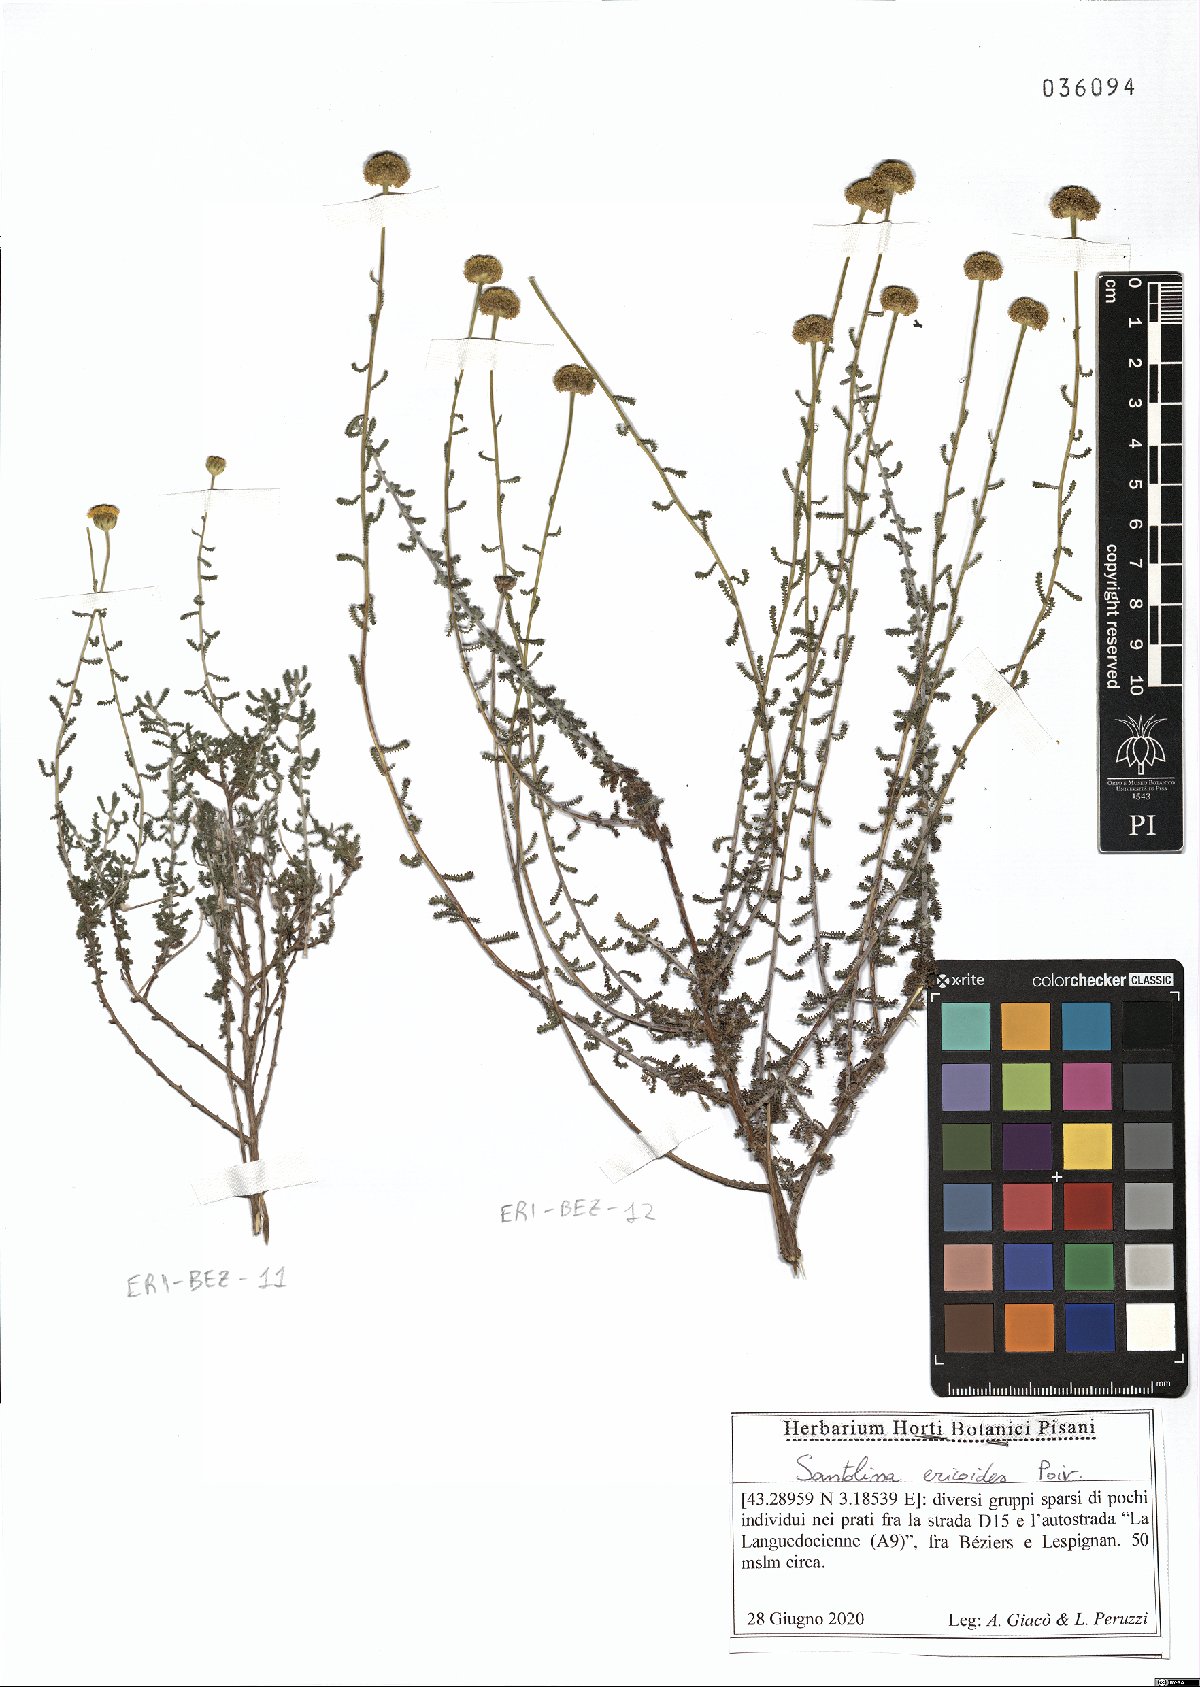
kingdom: Plantae
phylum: Tracheophyta
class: Magnoliopsida
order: Asterales
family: Asteraceae
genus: Santolina
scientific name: Santolina ericoides
